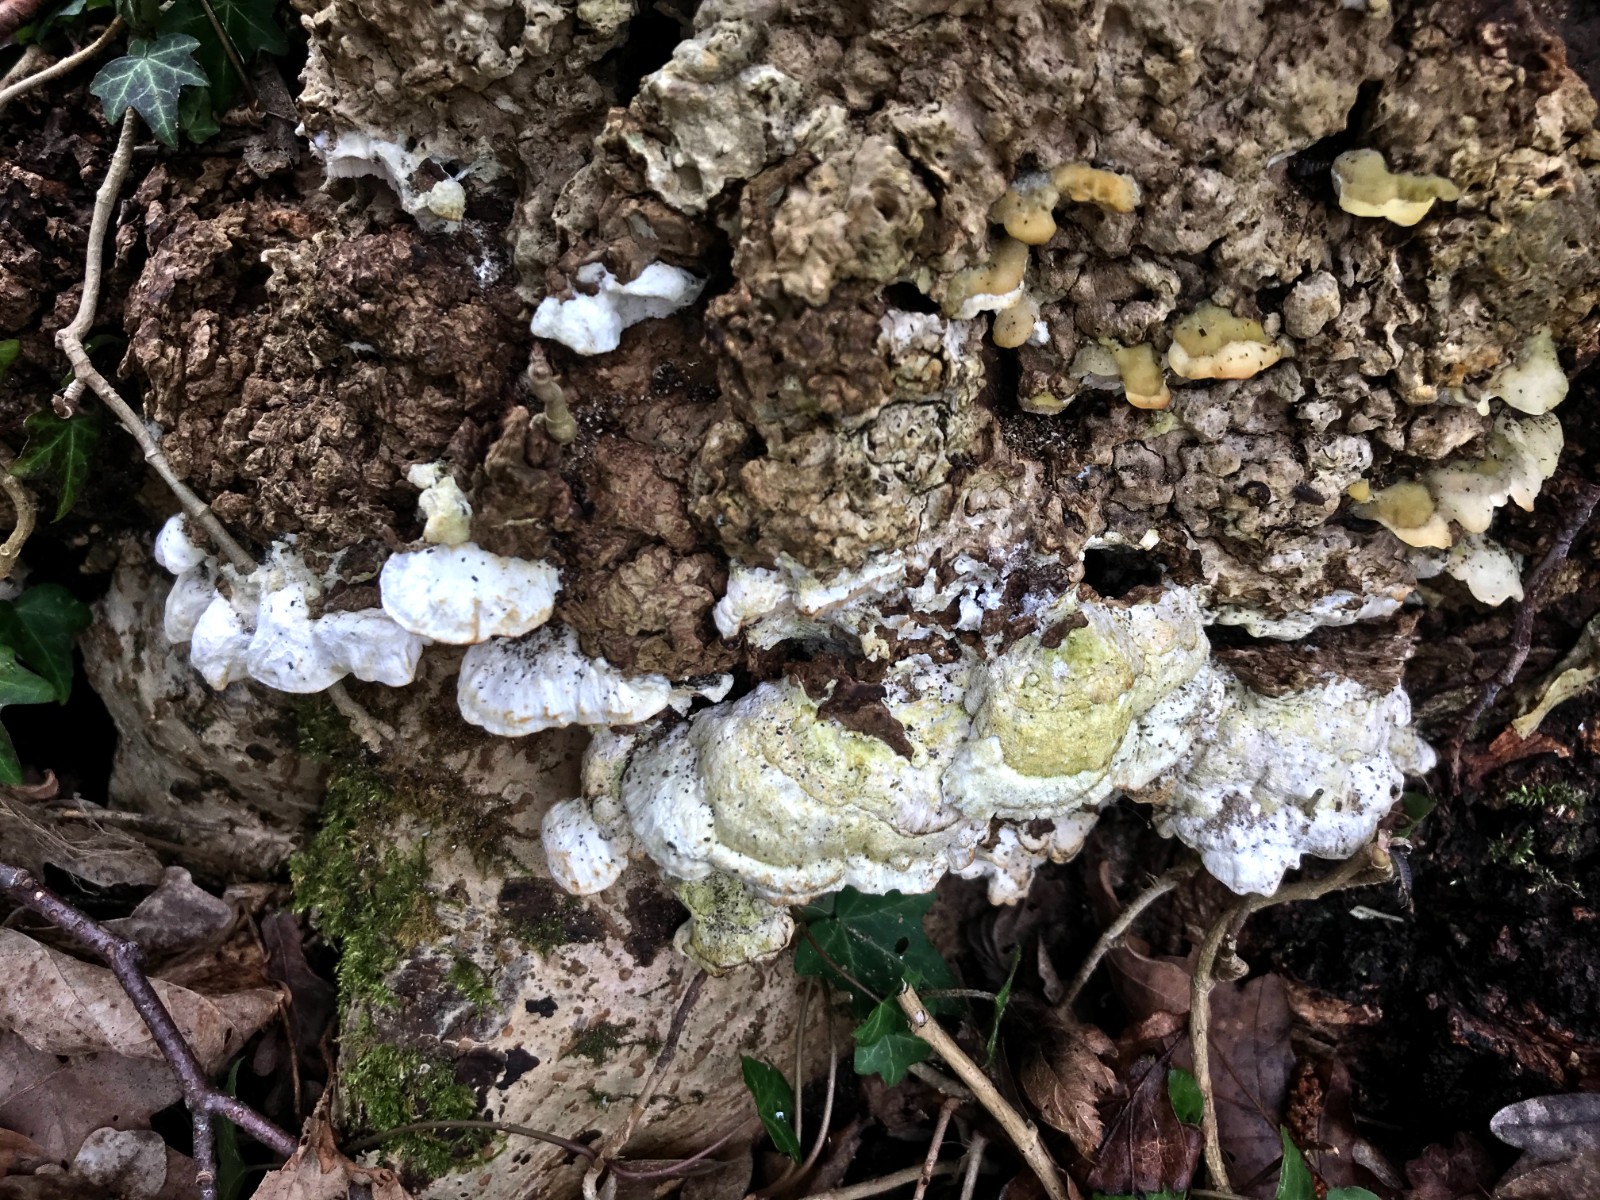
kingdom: Fungi
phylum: Basidiomycota
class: Agaricomycetes
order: Hymenochaetales
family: Oxyporaceae
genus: Oxyporus
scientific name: Oxyporus populinus
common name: sammenvokset trylleporesvamp
